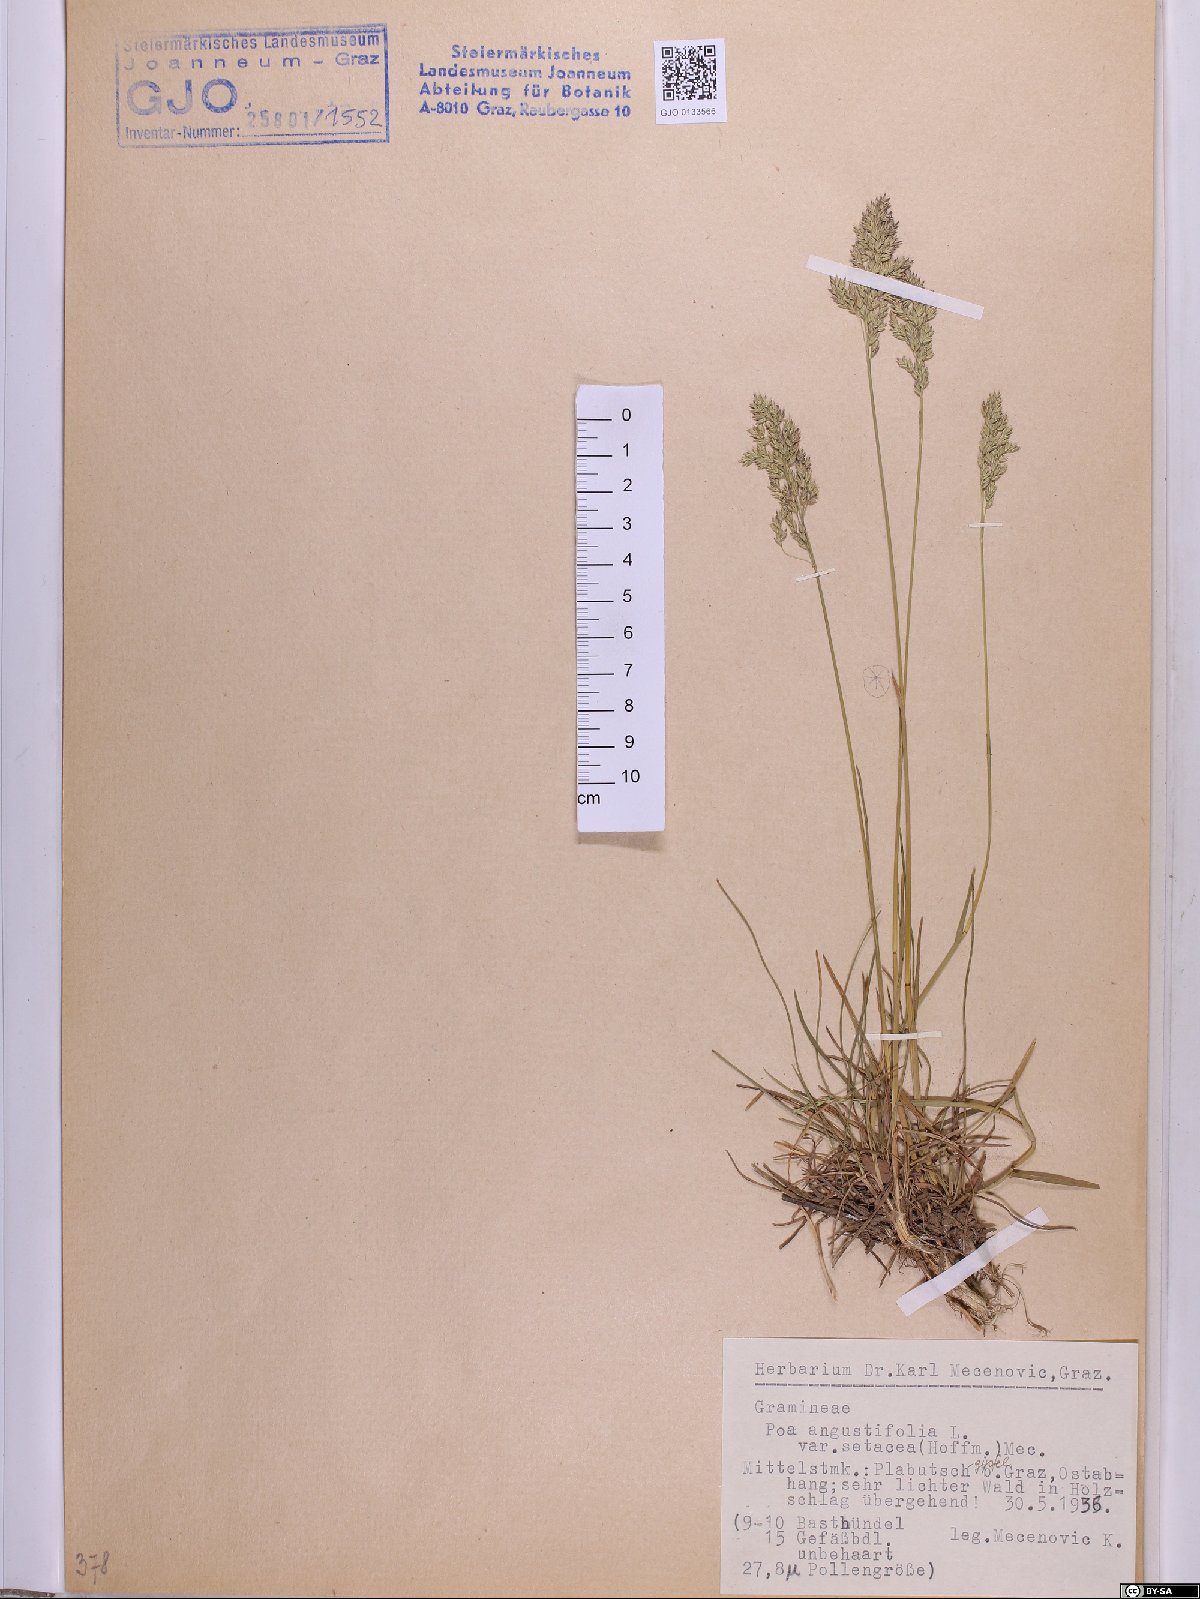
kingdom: Plantae
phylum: Tracheophyta
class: Liliopsida
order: Poales
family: Poaceae
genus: Poa
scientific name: Poa angustifolia
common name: Narrow-leaved meadow-grass
